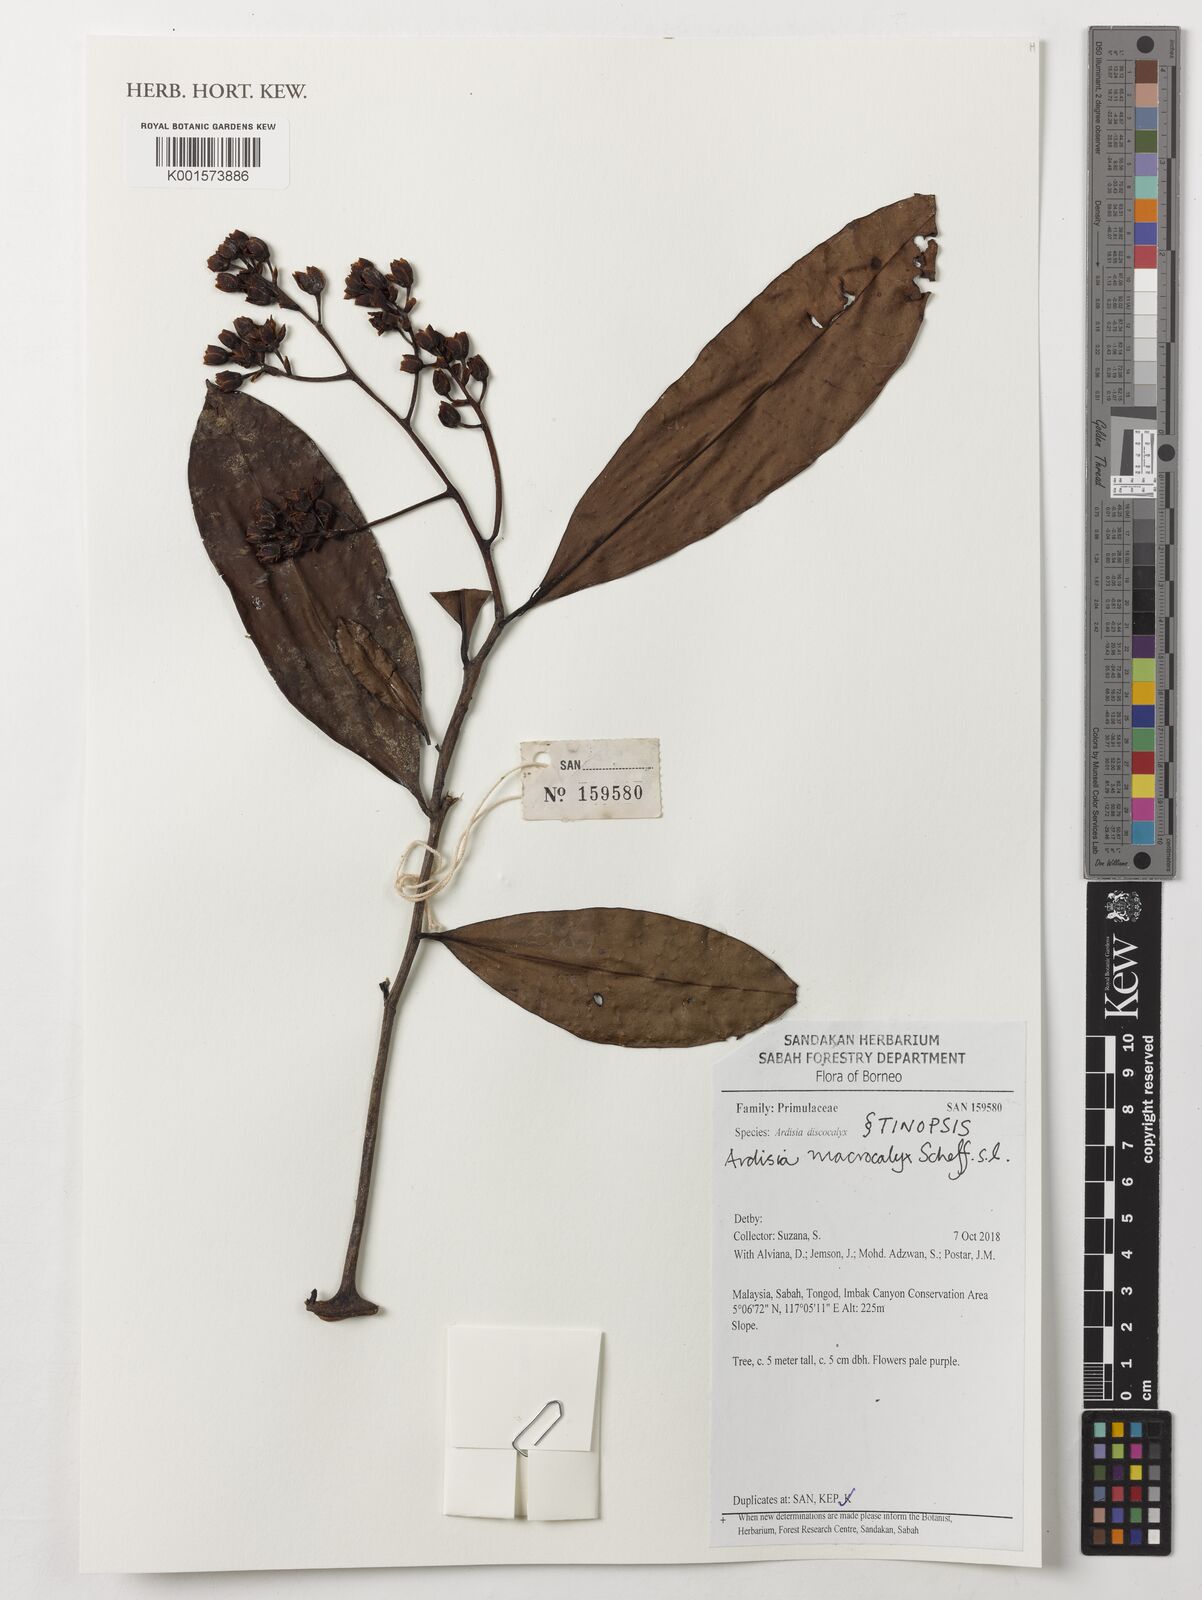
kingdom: Plantae
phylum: Tracheophyta
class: Magnoliopsida
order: Ericales
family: Primulaceae
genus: Ardisia
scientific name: Ardisia macrocalyx
